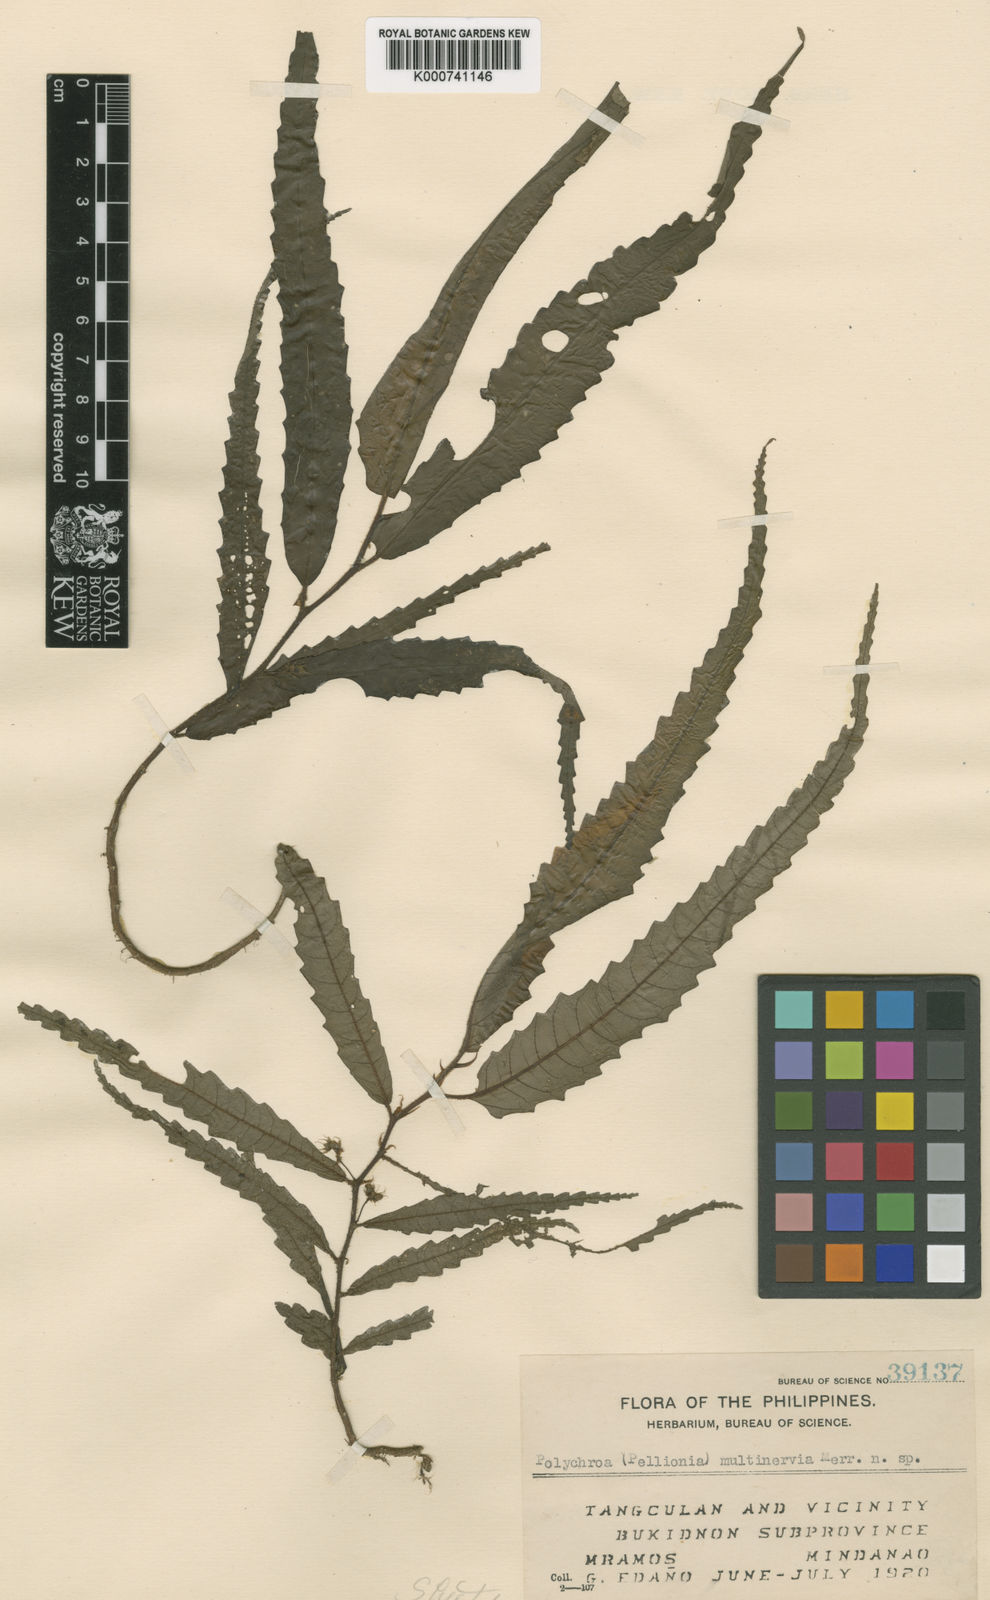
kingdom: Plantae
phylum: Tracheophyta
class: Magnoliopsida
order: Rosales
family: Urticaceae
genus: Elatostema
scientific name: Elatostema multinervium
